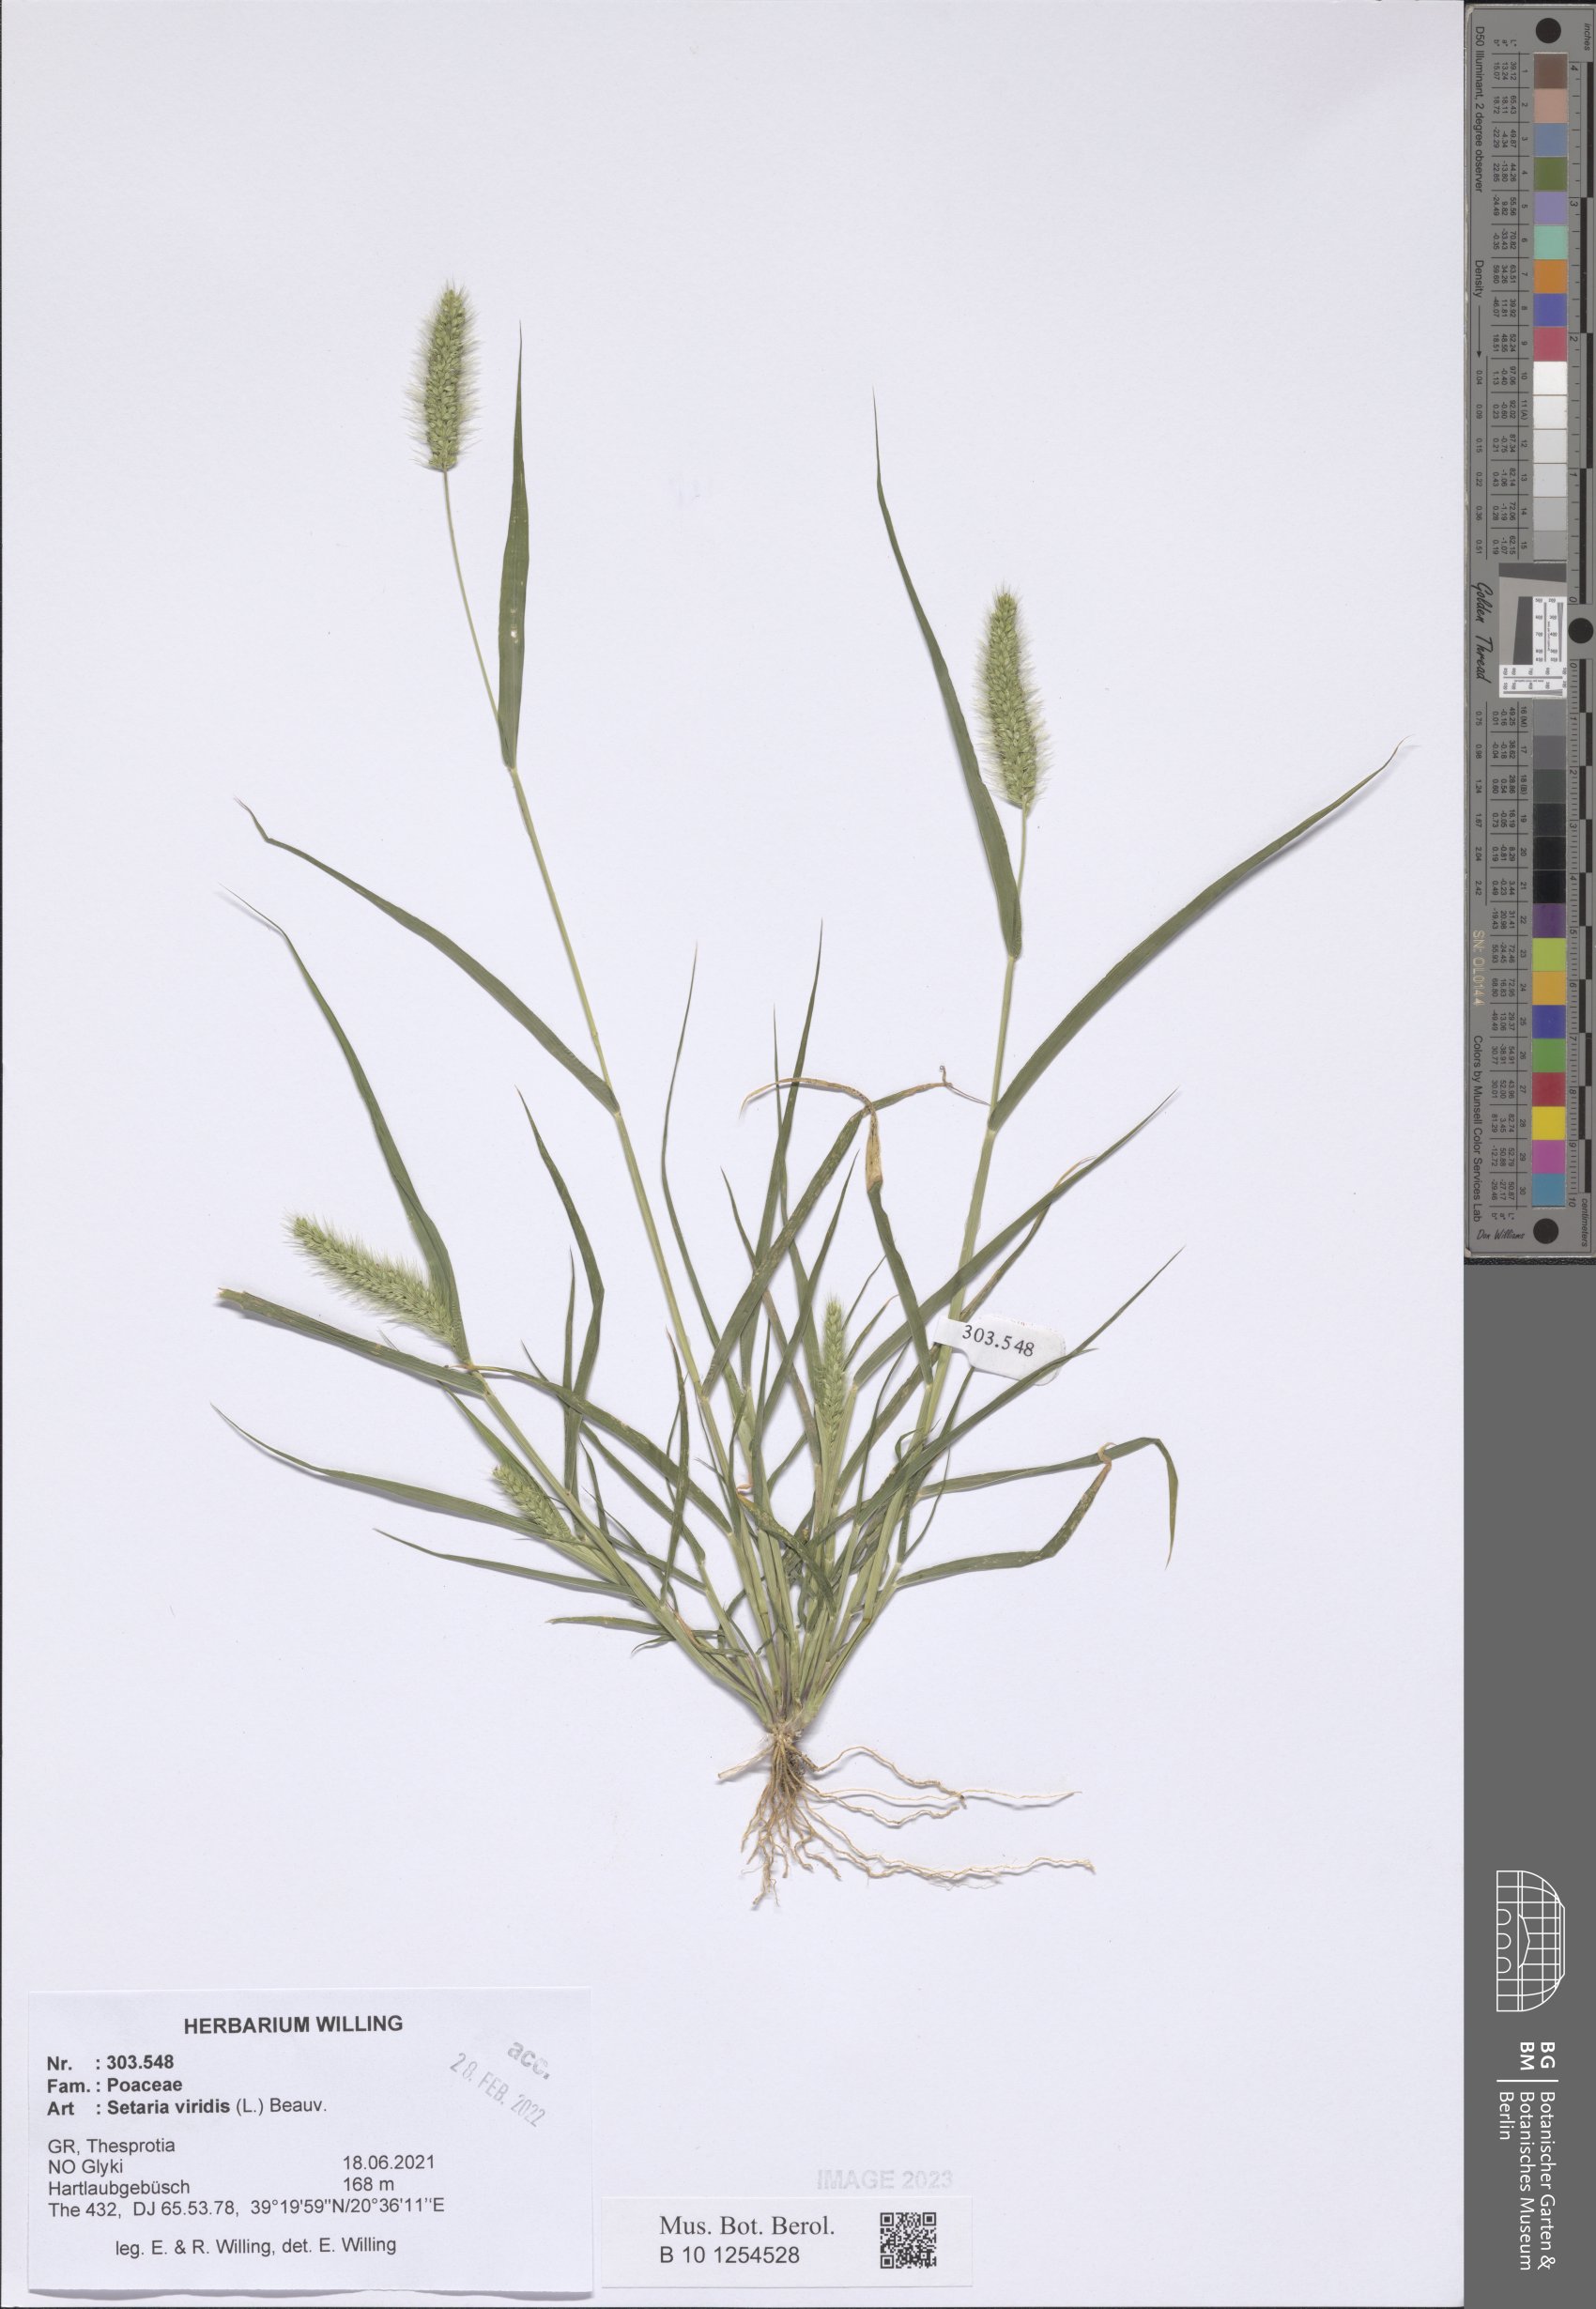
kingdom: Plantae
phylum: Tracheophyta
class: Liliopsida
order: Poales
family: Poaceae
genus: Setaria
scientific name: Setaria viridis
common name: Green bristlegrass
